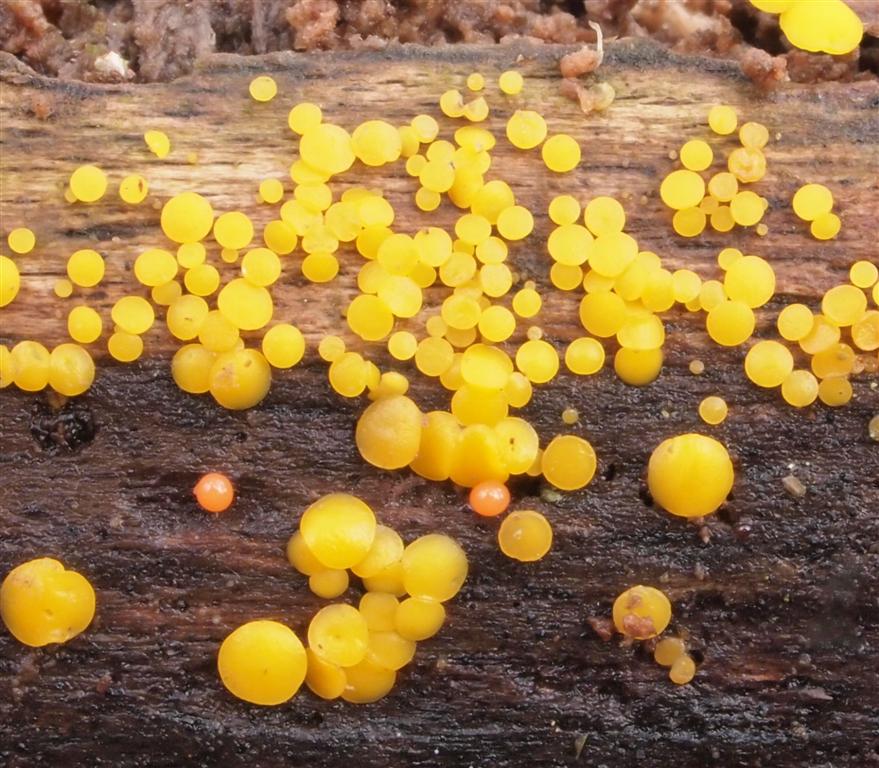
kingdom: Fungi
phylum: Ascomycota
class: Leotiomycetes
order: Helotiales
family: Pezizellaceae
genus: Calycina
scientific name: Calycina citrina
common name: almindelig gulskive
